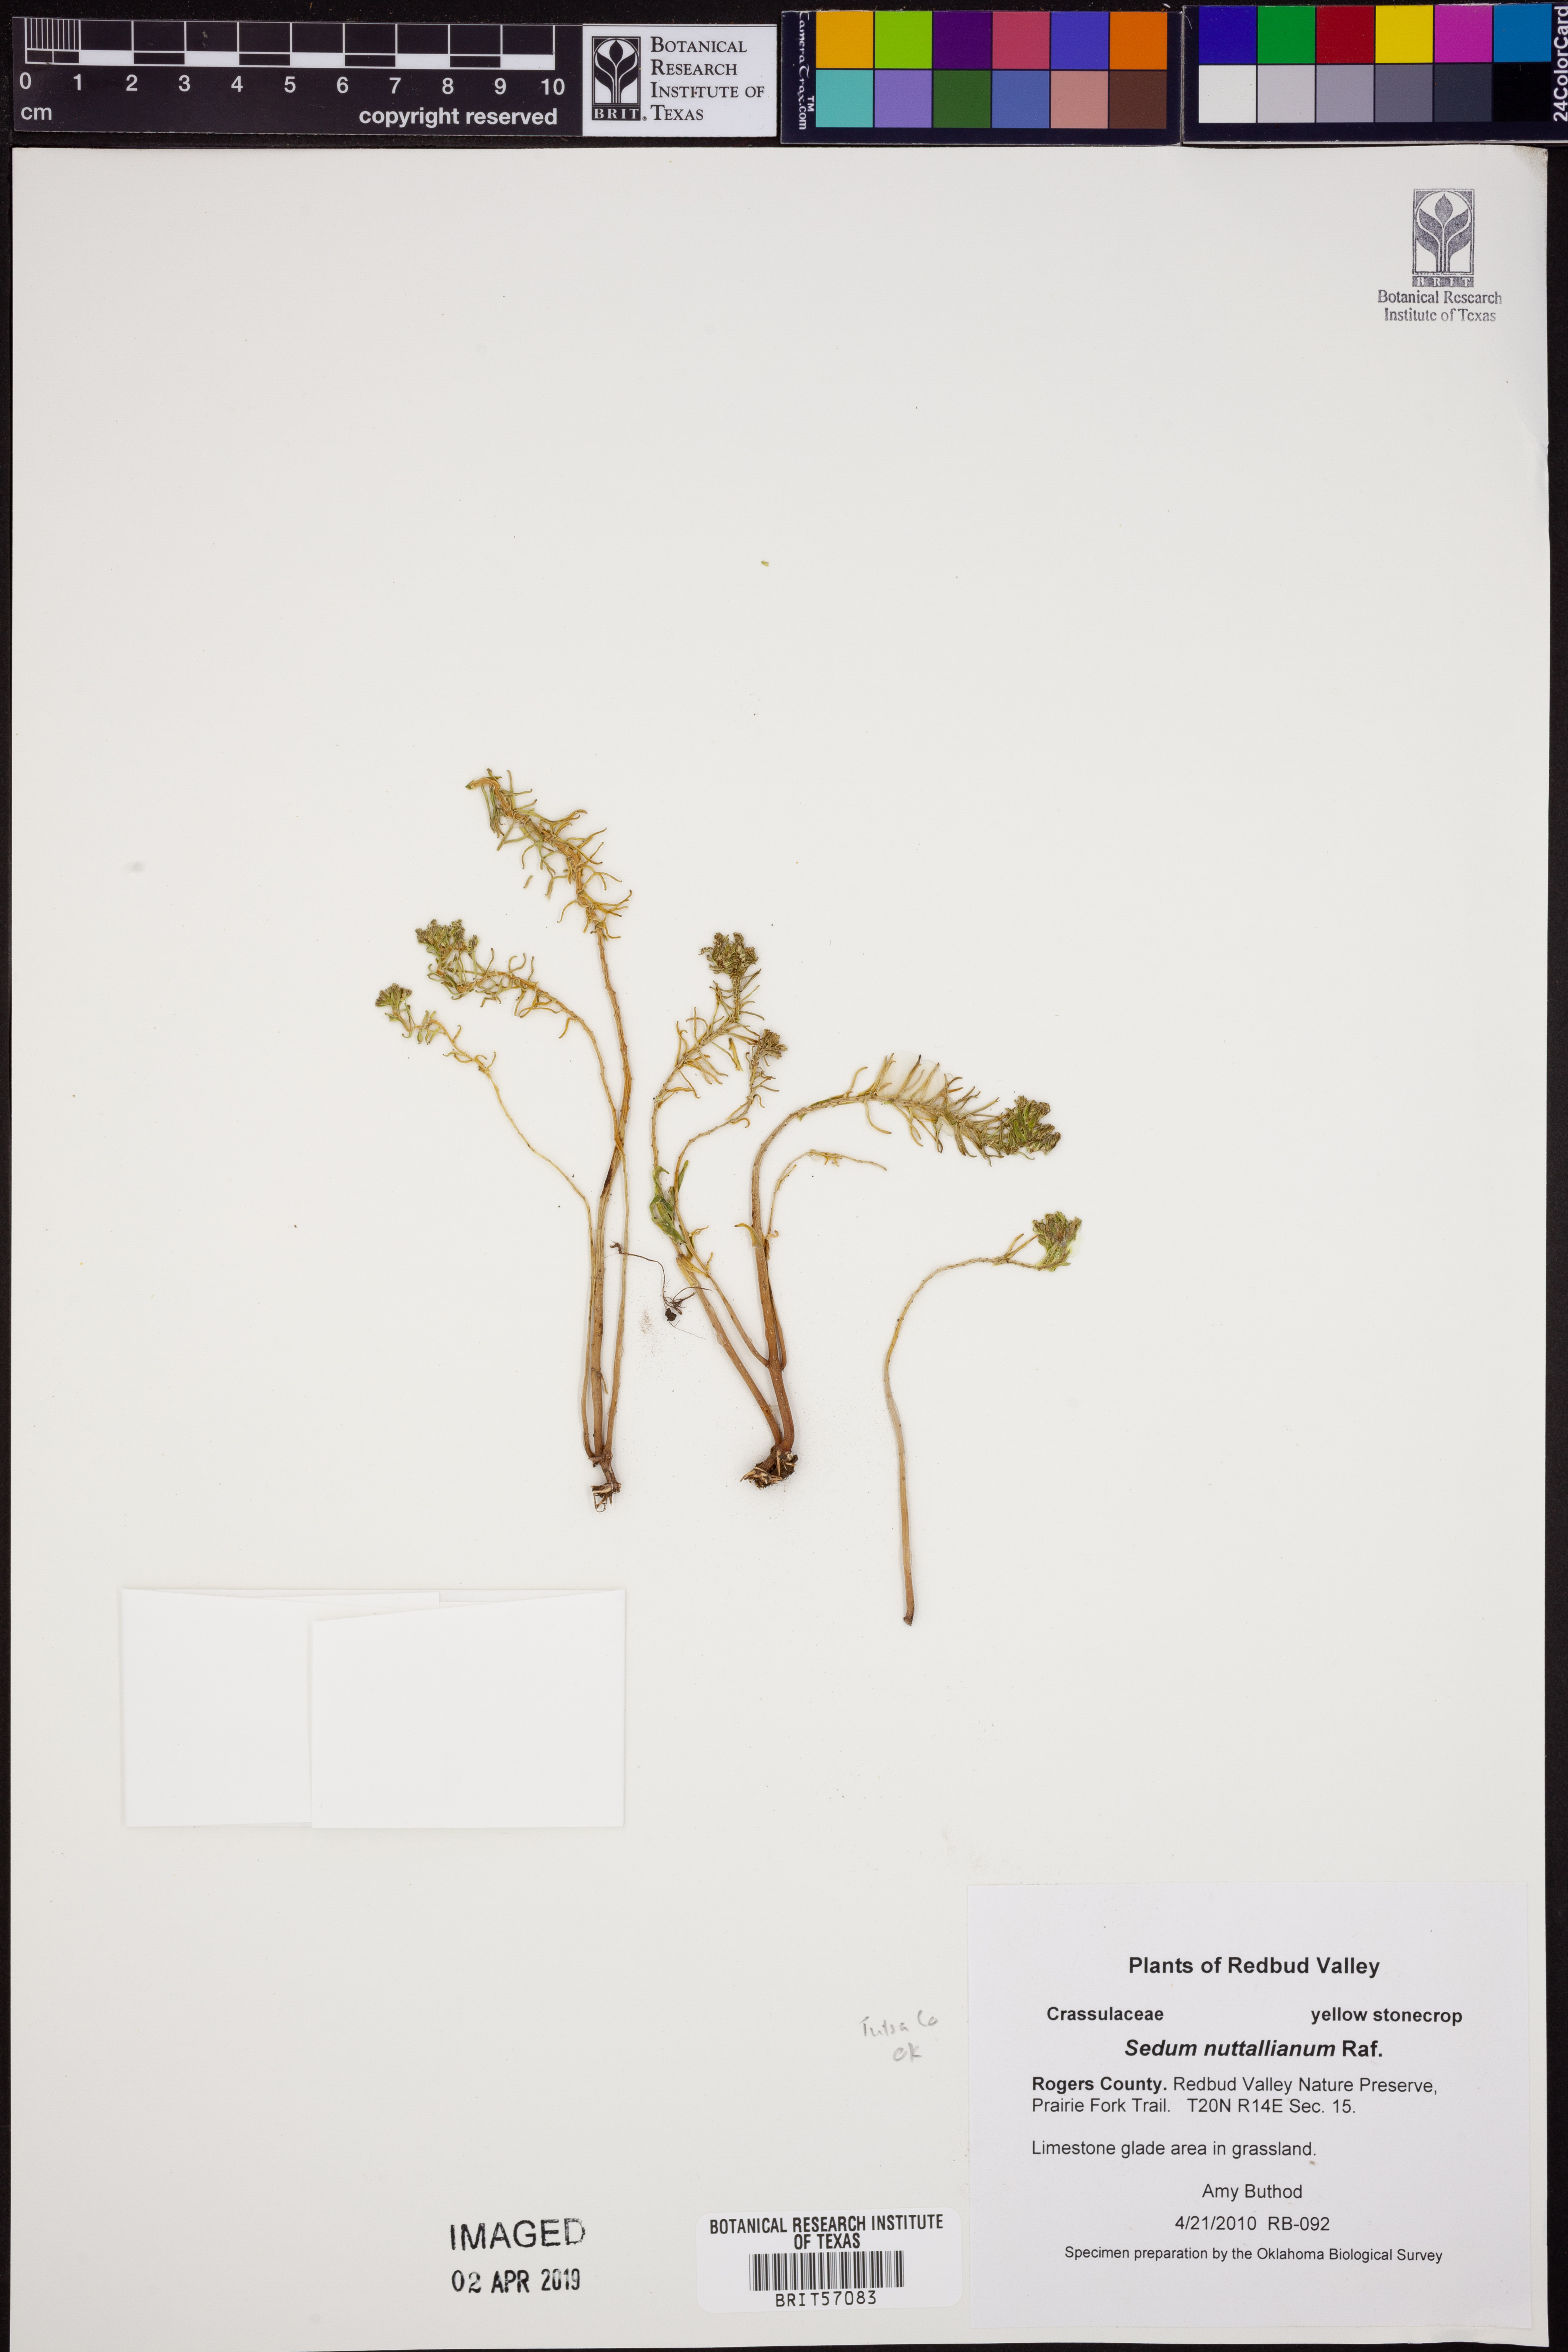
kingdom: Plantae
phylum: Tracheophyta
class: Magnoliopsida
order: Saxifragales
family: Crassulaceae
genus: Sedum
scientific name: Sedum nuttallii
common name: Yellow stonecrop
